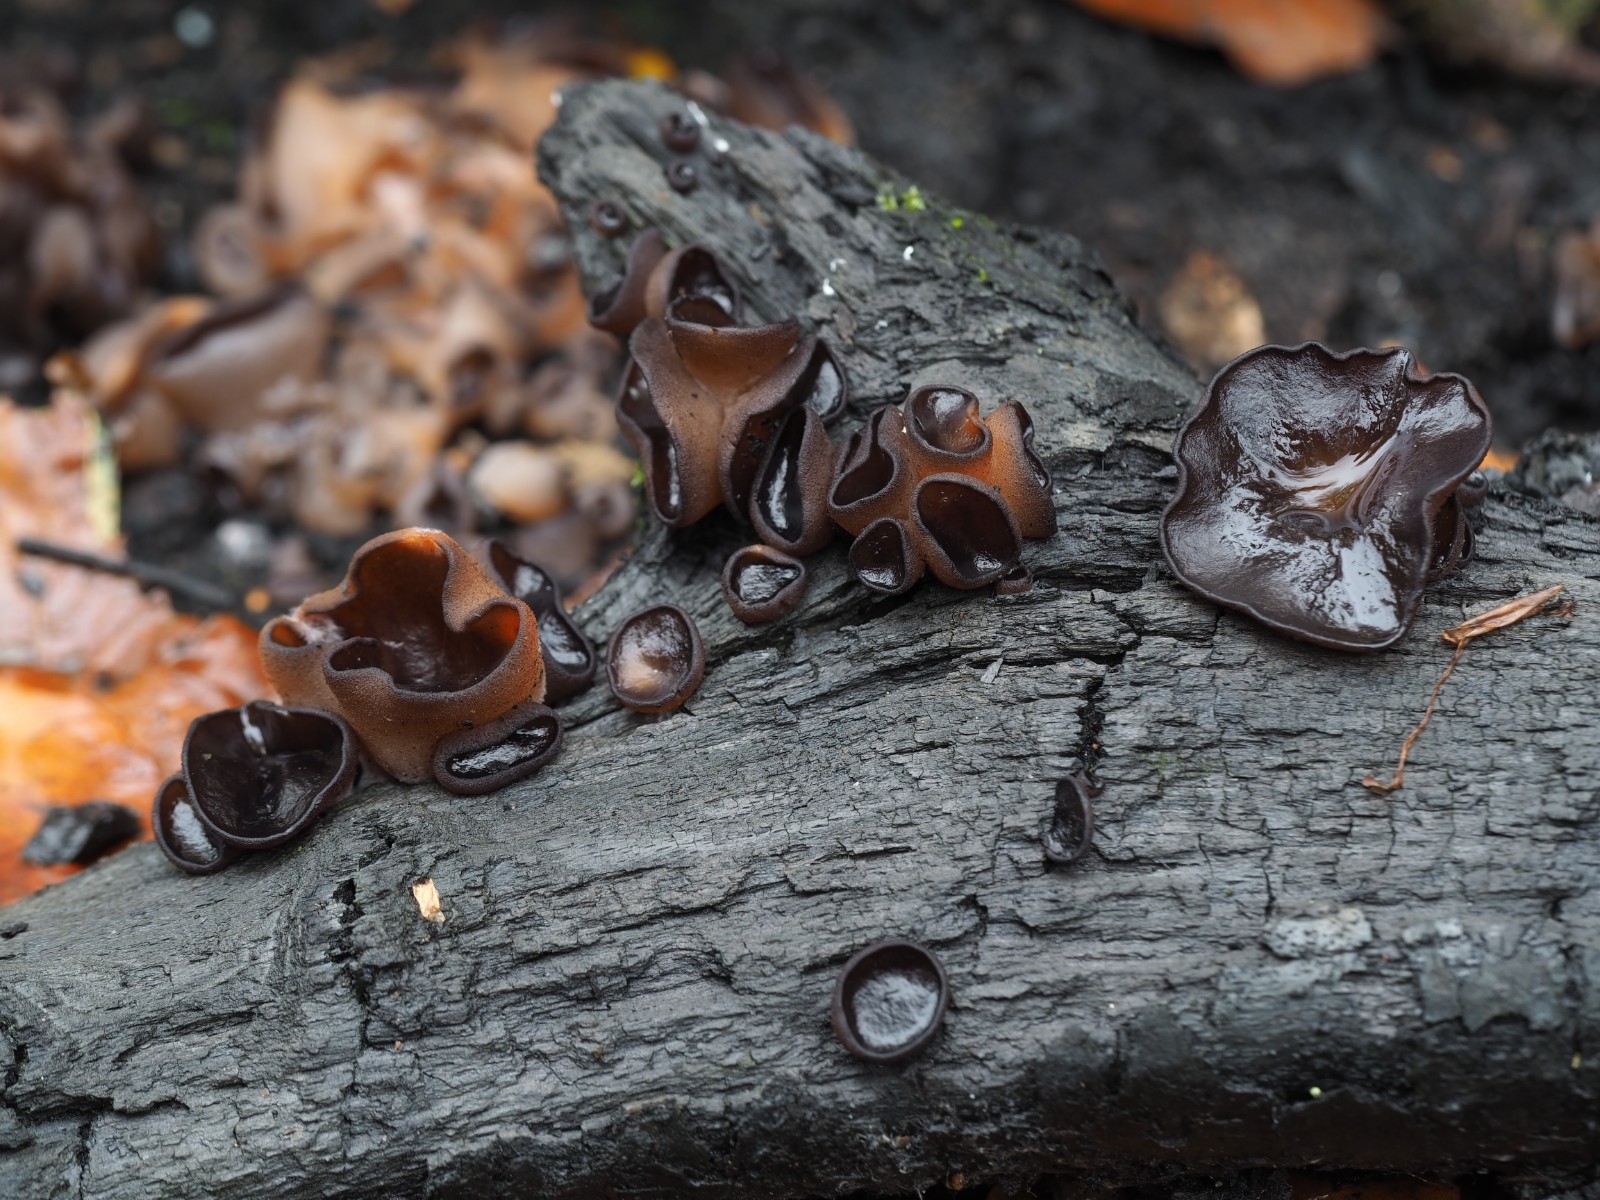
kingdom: Fungi
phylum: Ascomycota
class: Pezizomycetes
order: Pezizales
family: Pyronemataceae
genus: Plicaria
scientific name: Plicaria carbonaria
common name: pigsporet bålbæger
